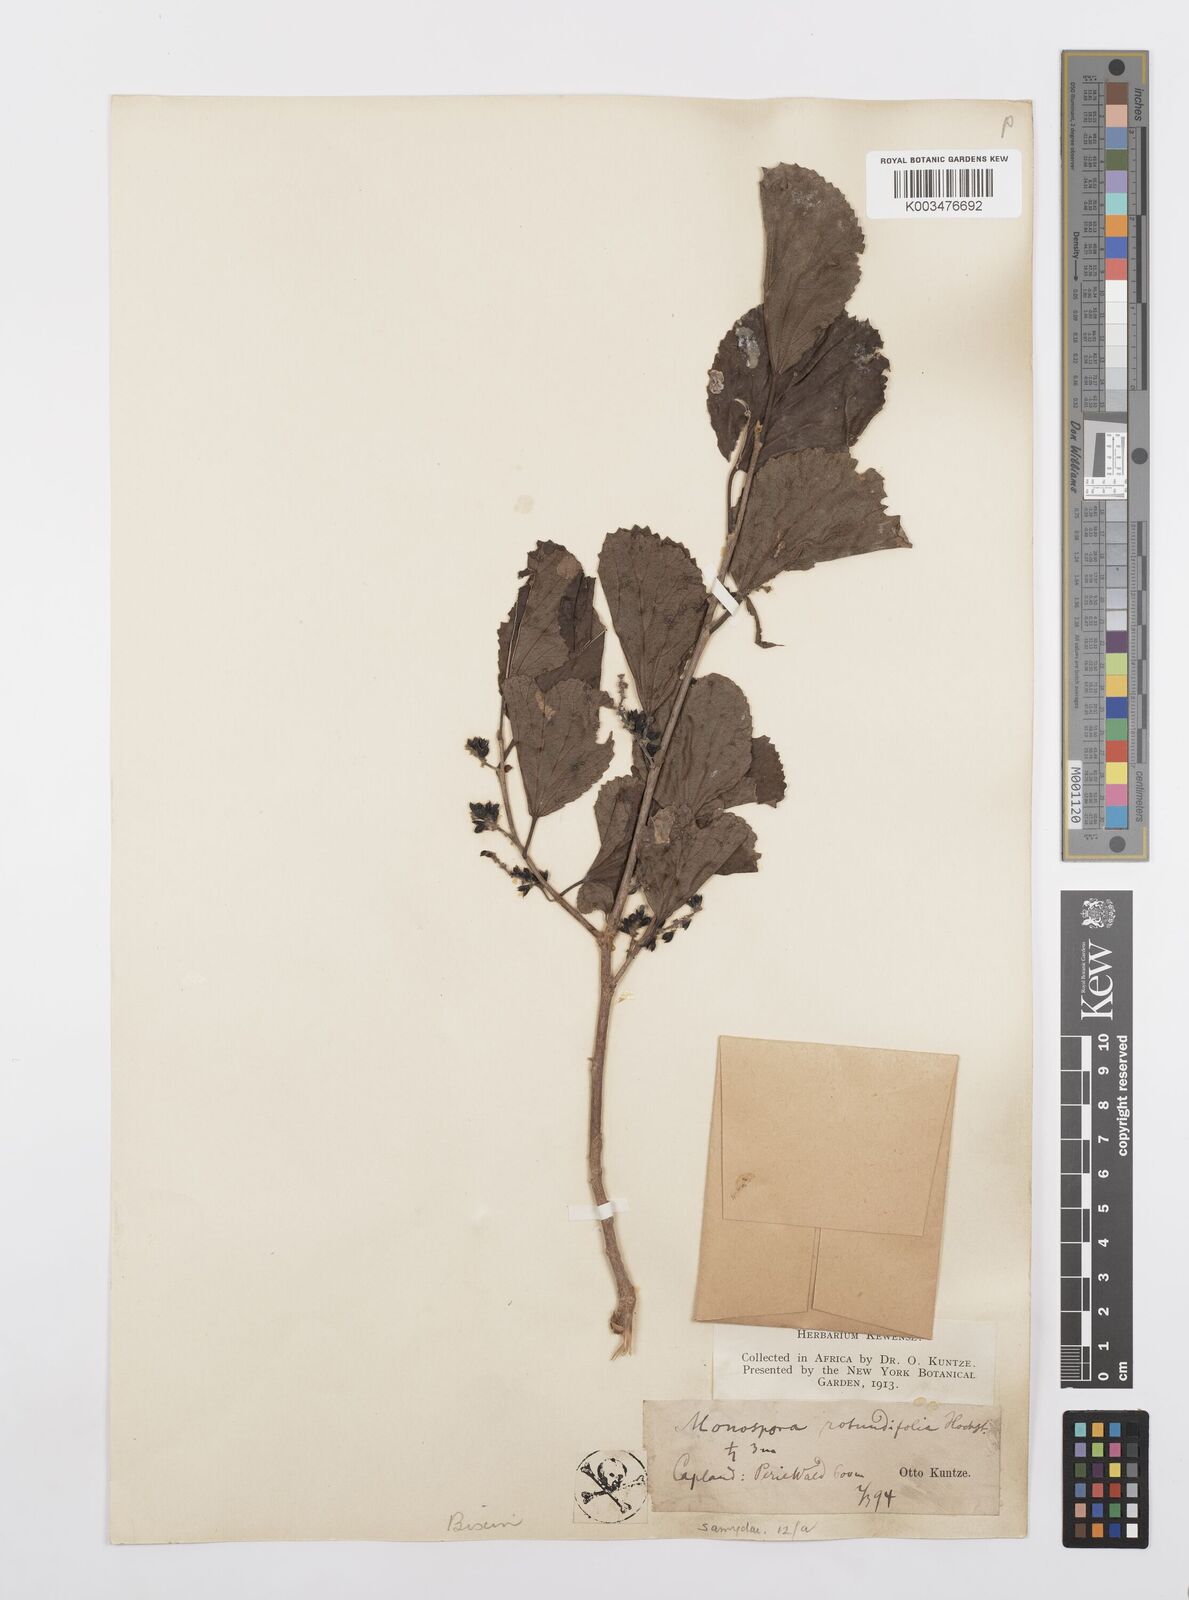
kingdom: Plantae
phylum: Tracheophyta
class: Magnoliopsida
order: Malpighiales
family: Salicaceae
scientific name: Salicaceae
